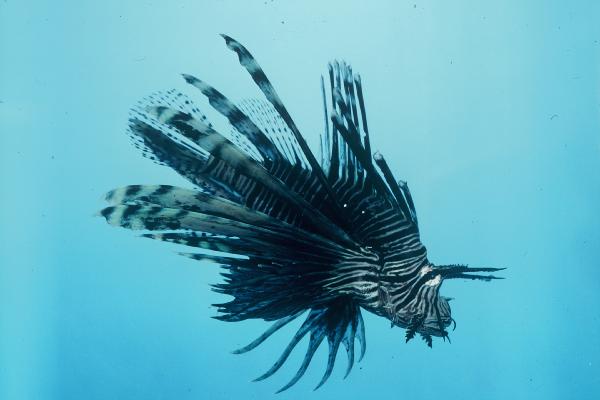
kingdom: Animalia
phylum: Chordata
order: Scorpaeniformes
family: Scorpaenidae
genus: Pterois
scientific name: Pterois miles
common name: Devil firefish
